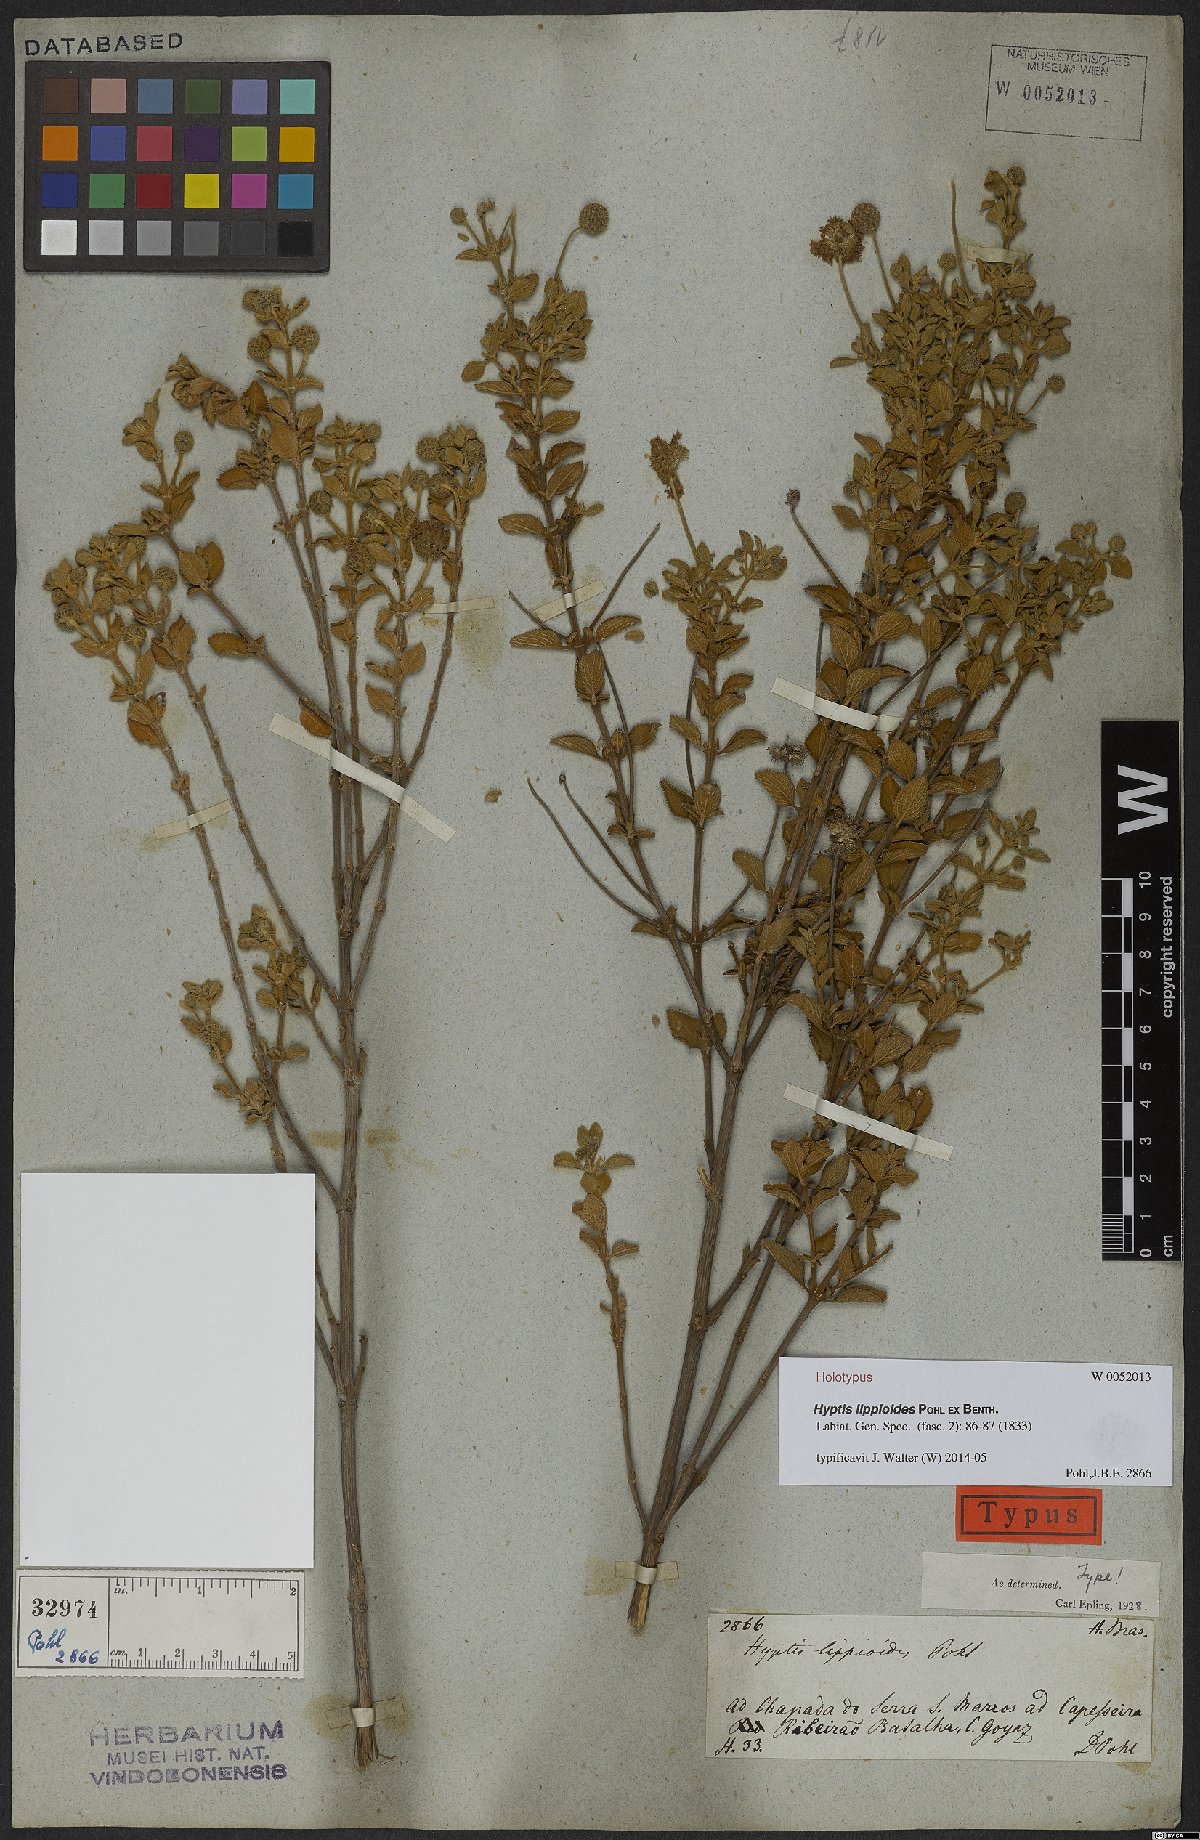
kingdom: Plantae
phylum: Tracheophyta
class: Magnoliopsida
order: Lamiales
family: Lamiaceae
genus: Cyanocephalus
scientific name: Cyanocephalus lippioides
